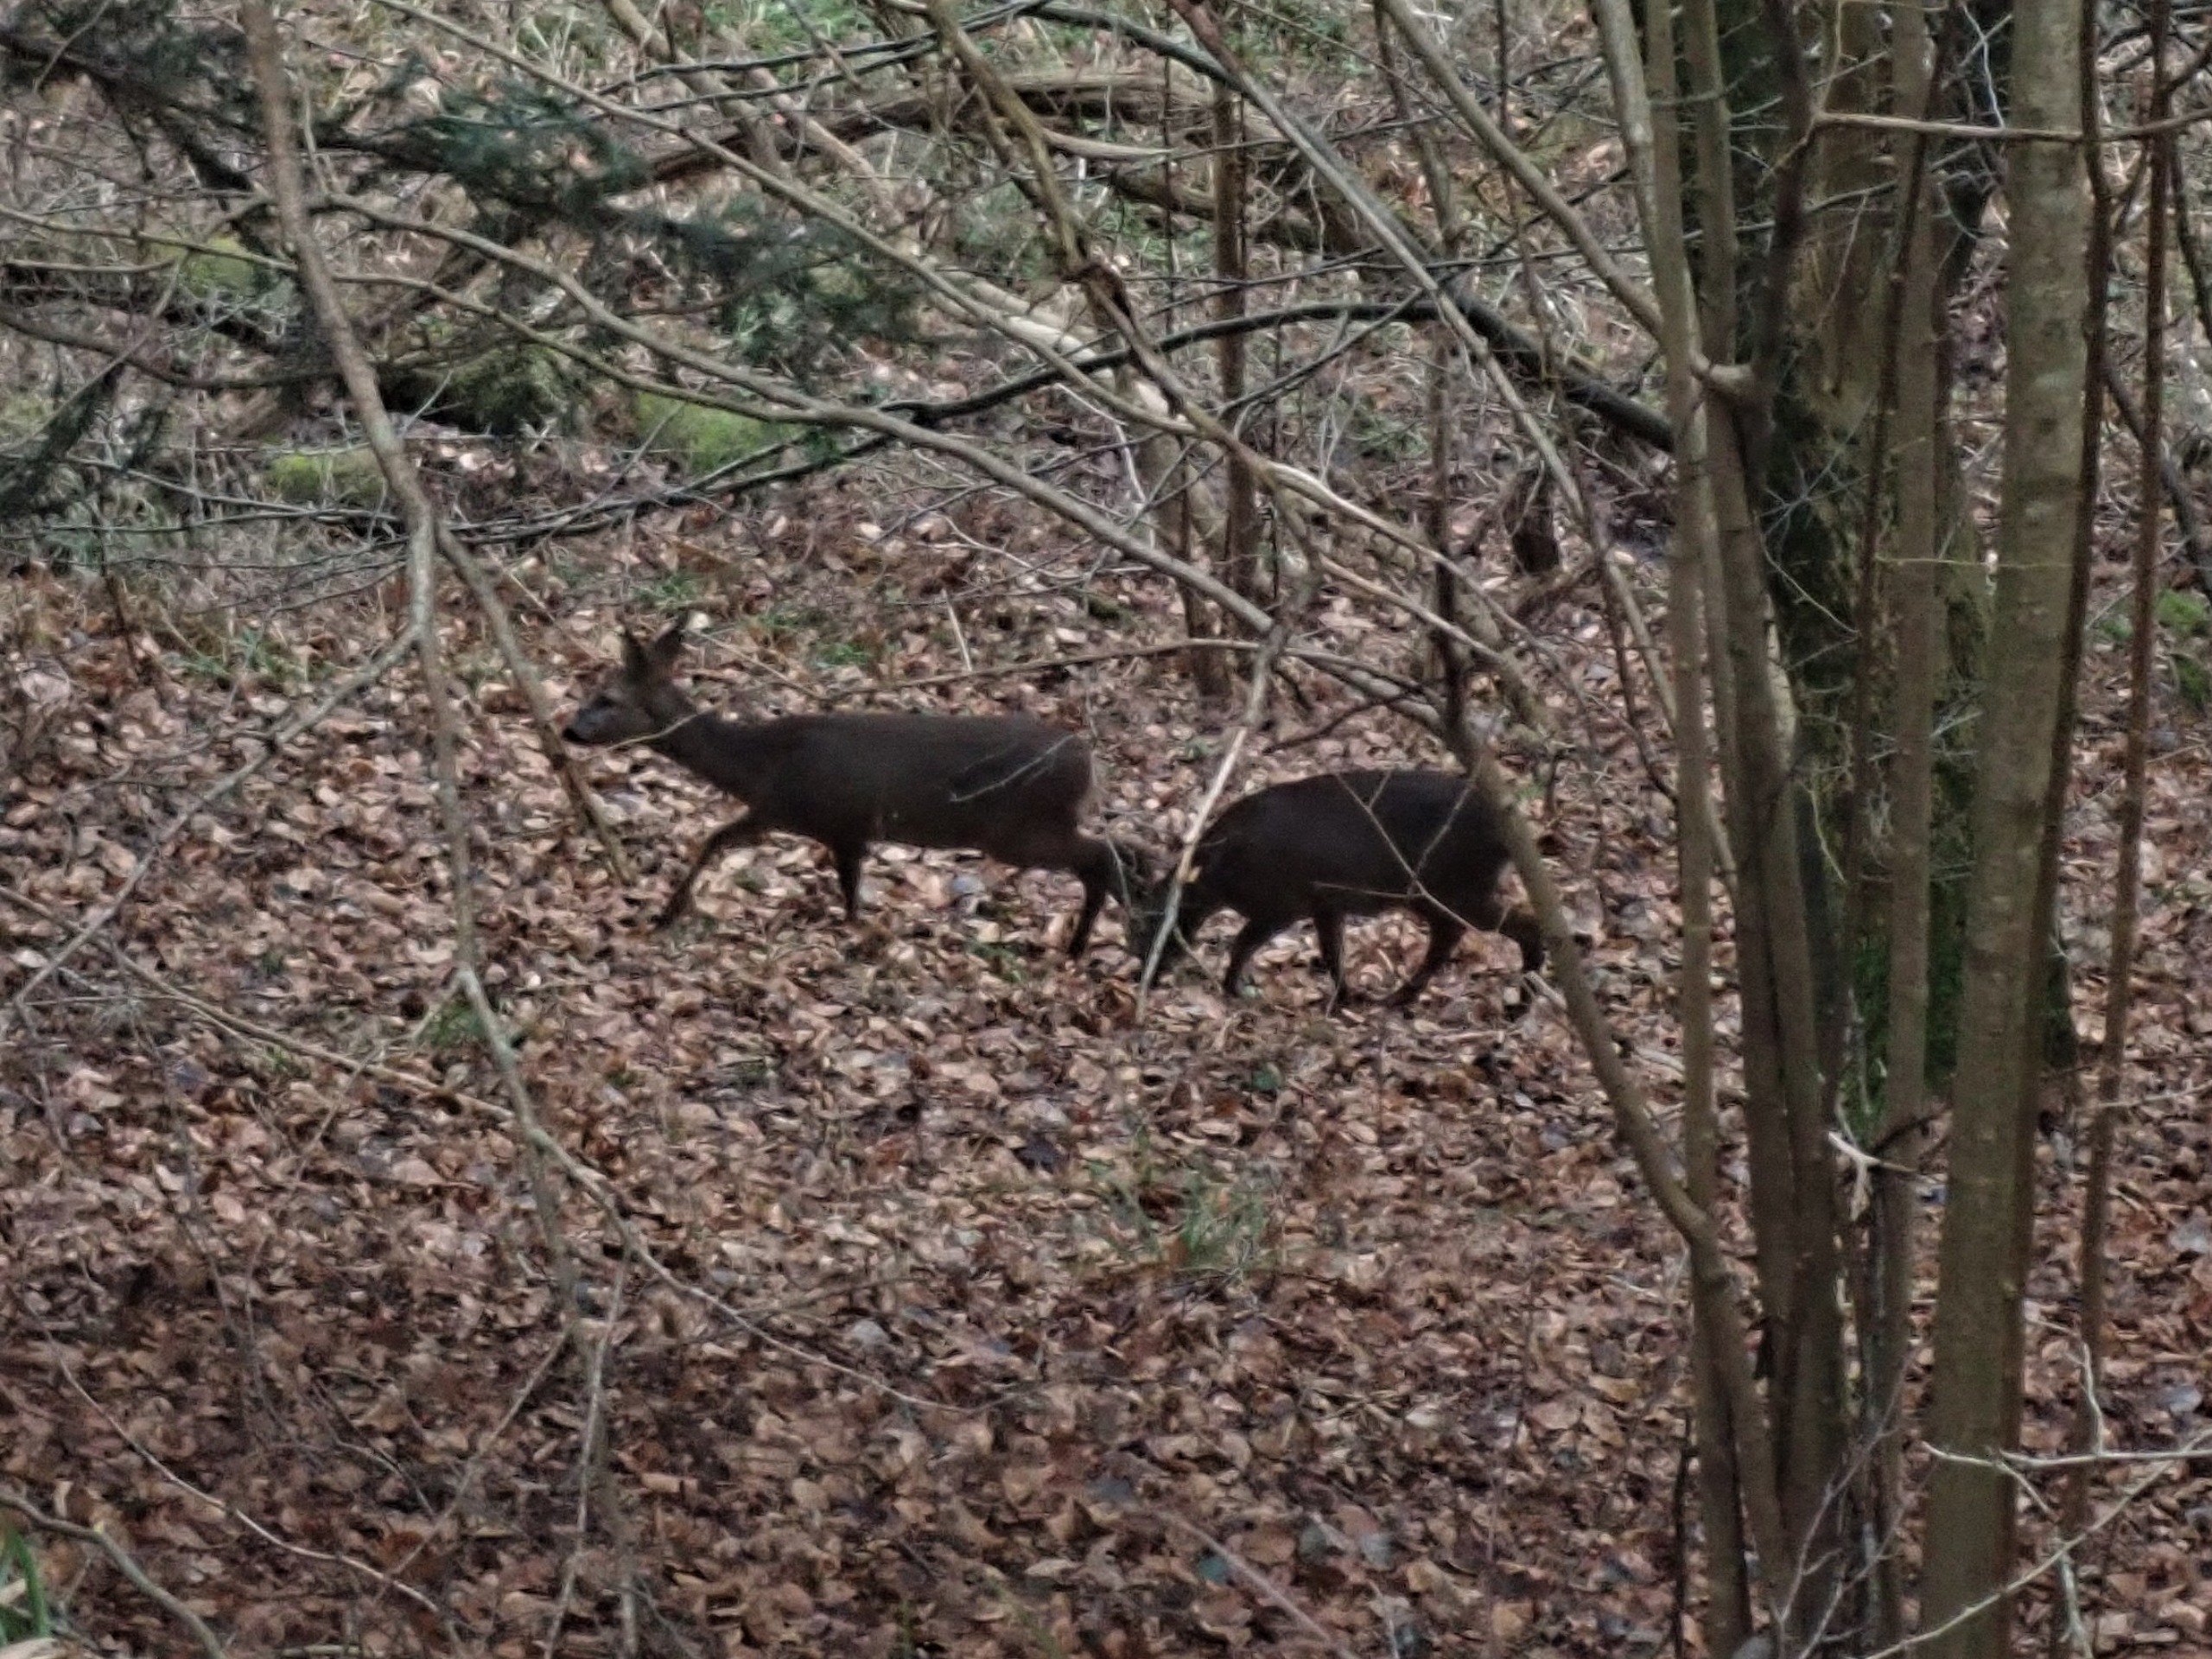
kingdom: Animalia
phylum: Chordata
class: Mammalia
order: Artiodactyla
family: Cervidae
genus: Capreolus
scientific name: Capreolus capreolus
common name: Rådyr
